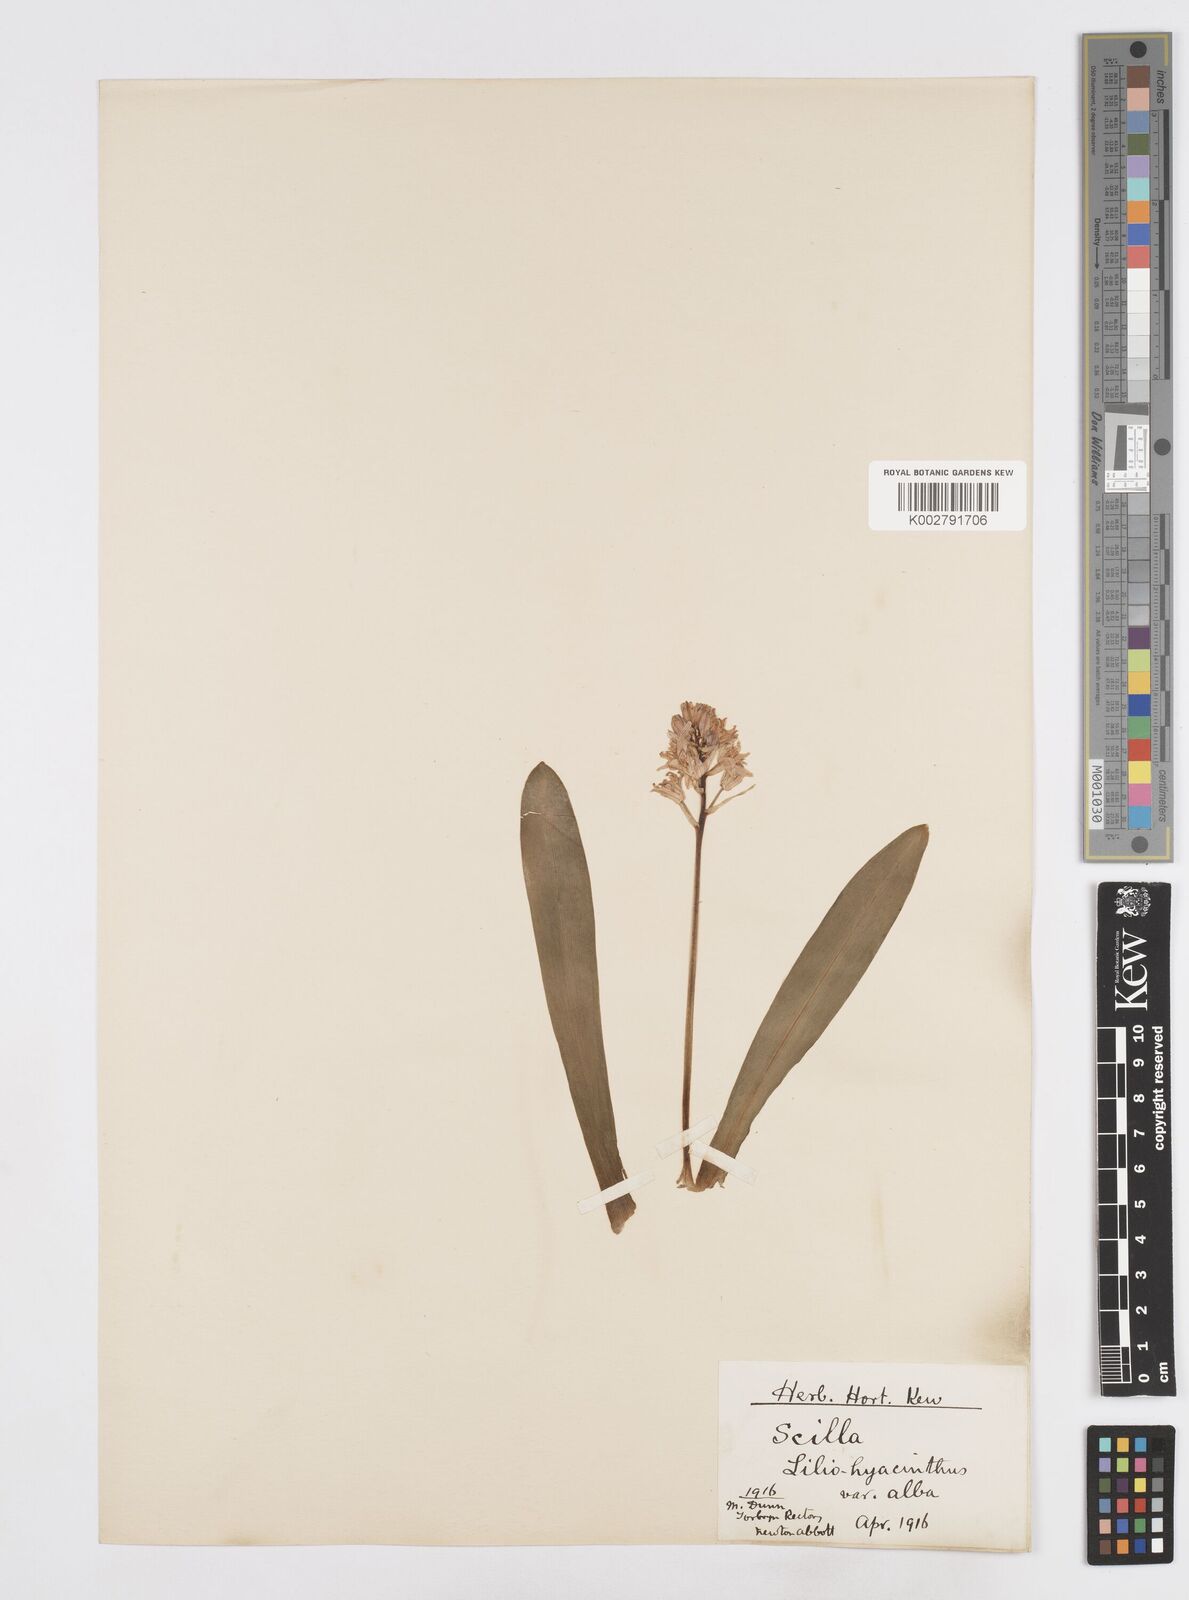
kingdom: Plantae
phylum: Tracheophyta
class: Liliopsida
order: Asparagales
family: Asparagaceae
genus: Scilla
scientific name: Scilla lilio-hyacinthus
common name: Pyrenean squill
